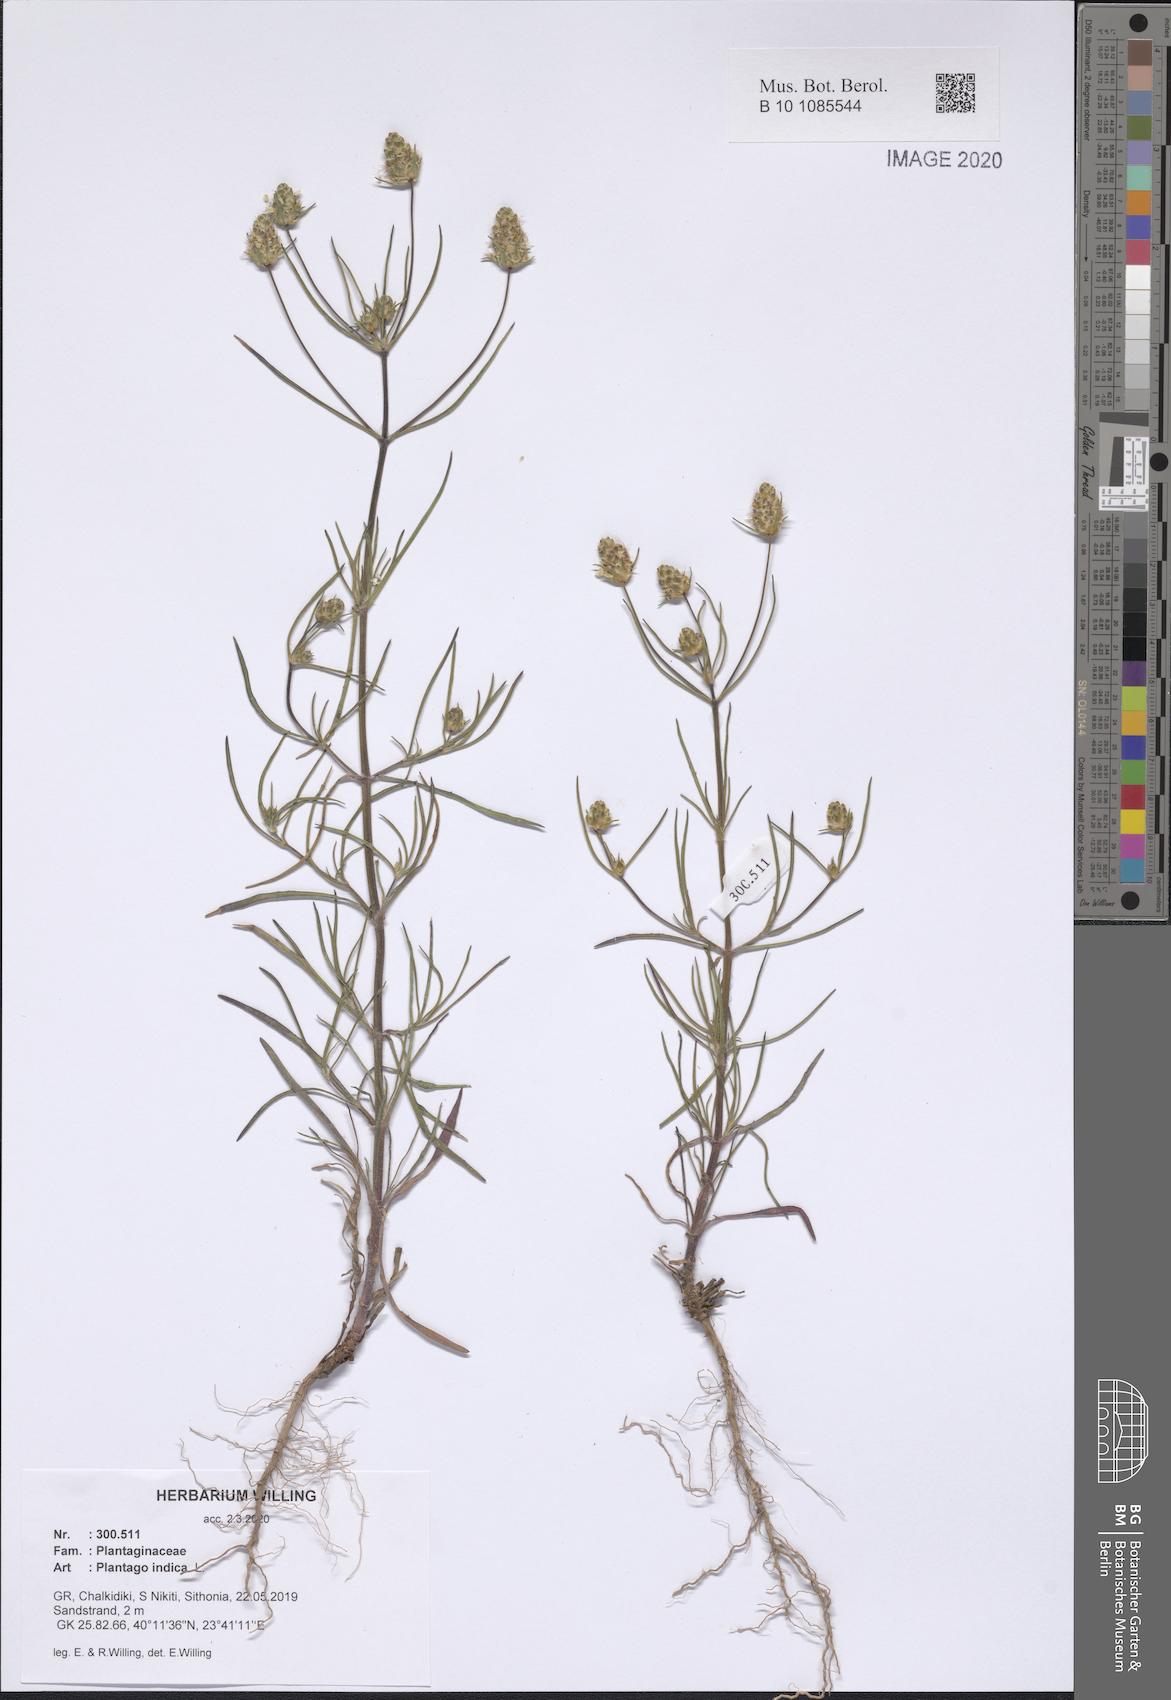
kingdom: Plantae
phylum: Tracheophyta
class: Magnoliopsida
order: Lamiales
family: Plantaginaceae
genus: Plantago
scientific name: Plantago arenaria
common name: Branched plantain
